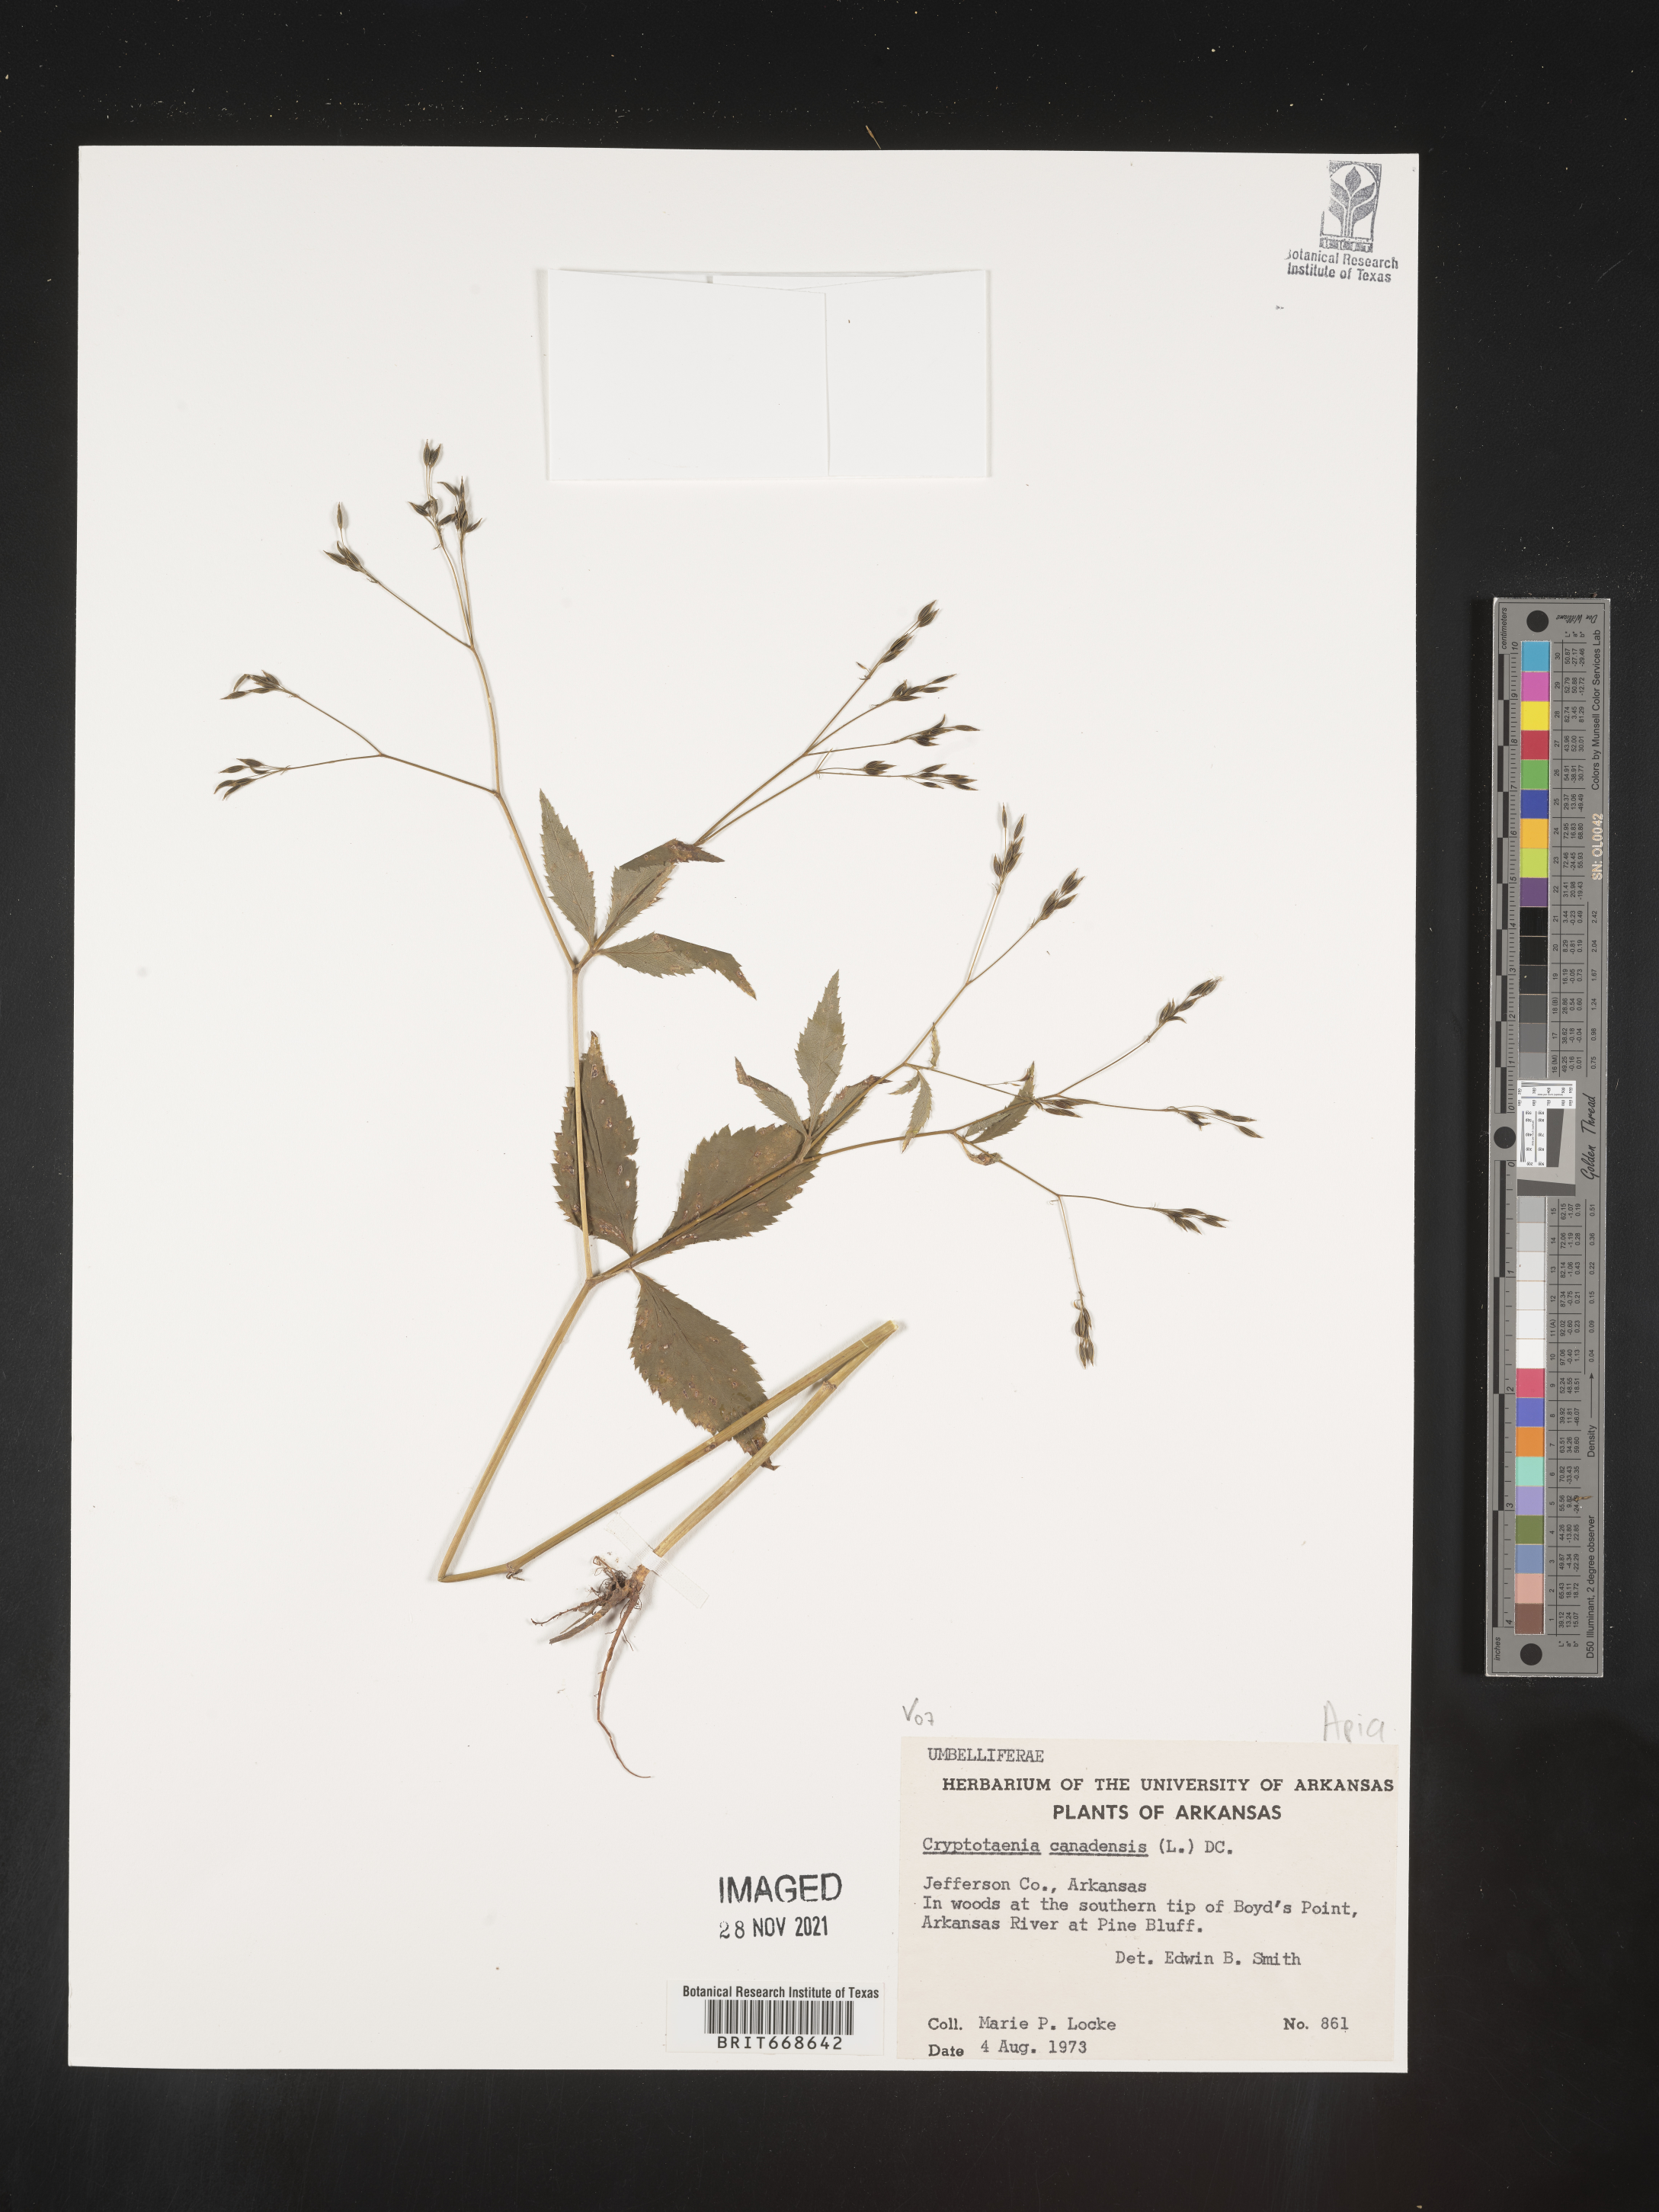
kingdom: Plantae
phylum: Tracheophyta
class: Magnoliopsida
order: Apiales
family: Apiaceae
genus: Cryptotaenia
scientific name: Cryptotaenia canadensis
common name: Honewort
